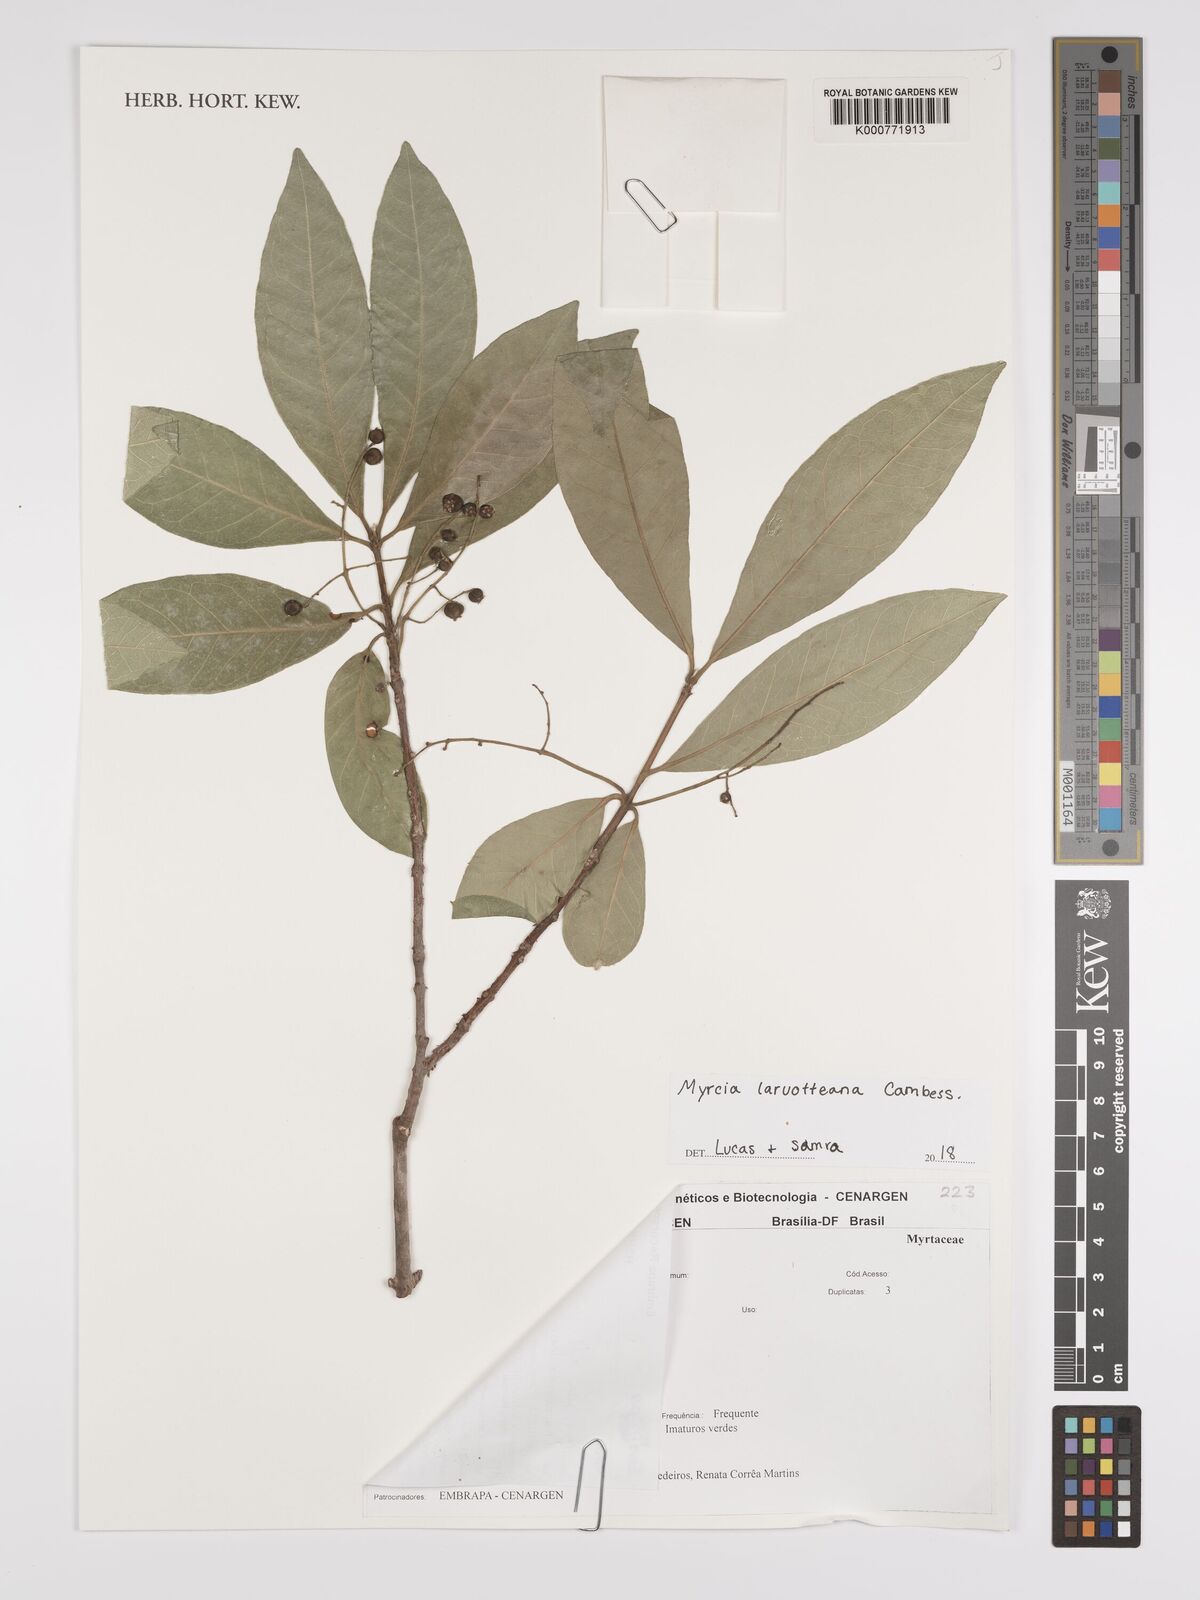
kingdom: Plantae
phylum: Tracheophyta
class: Magnoliopsida
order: Myrtales
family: Myrtaceae
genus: Myrcia
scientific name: Myrcia laruotteana
